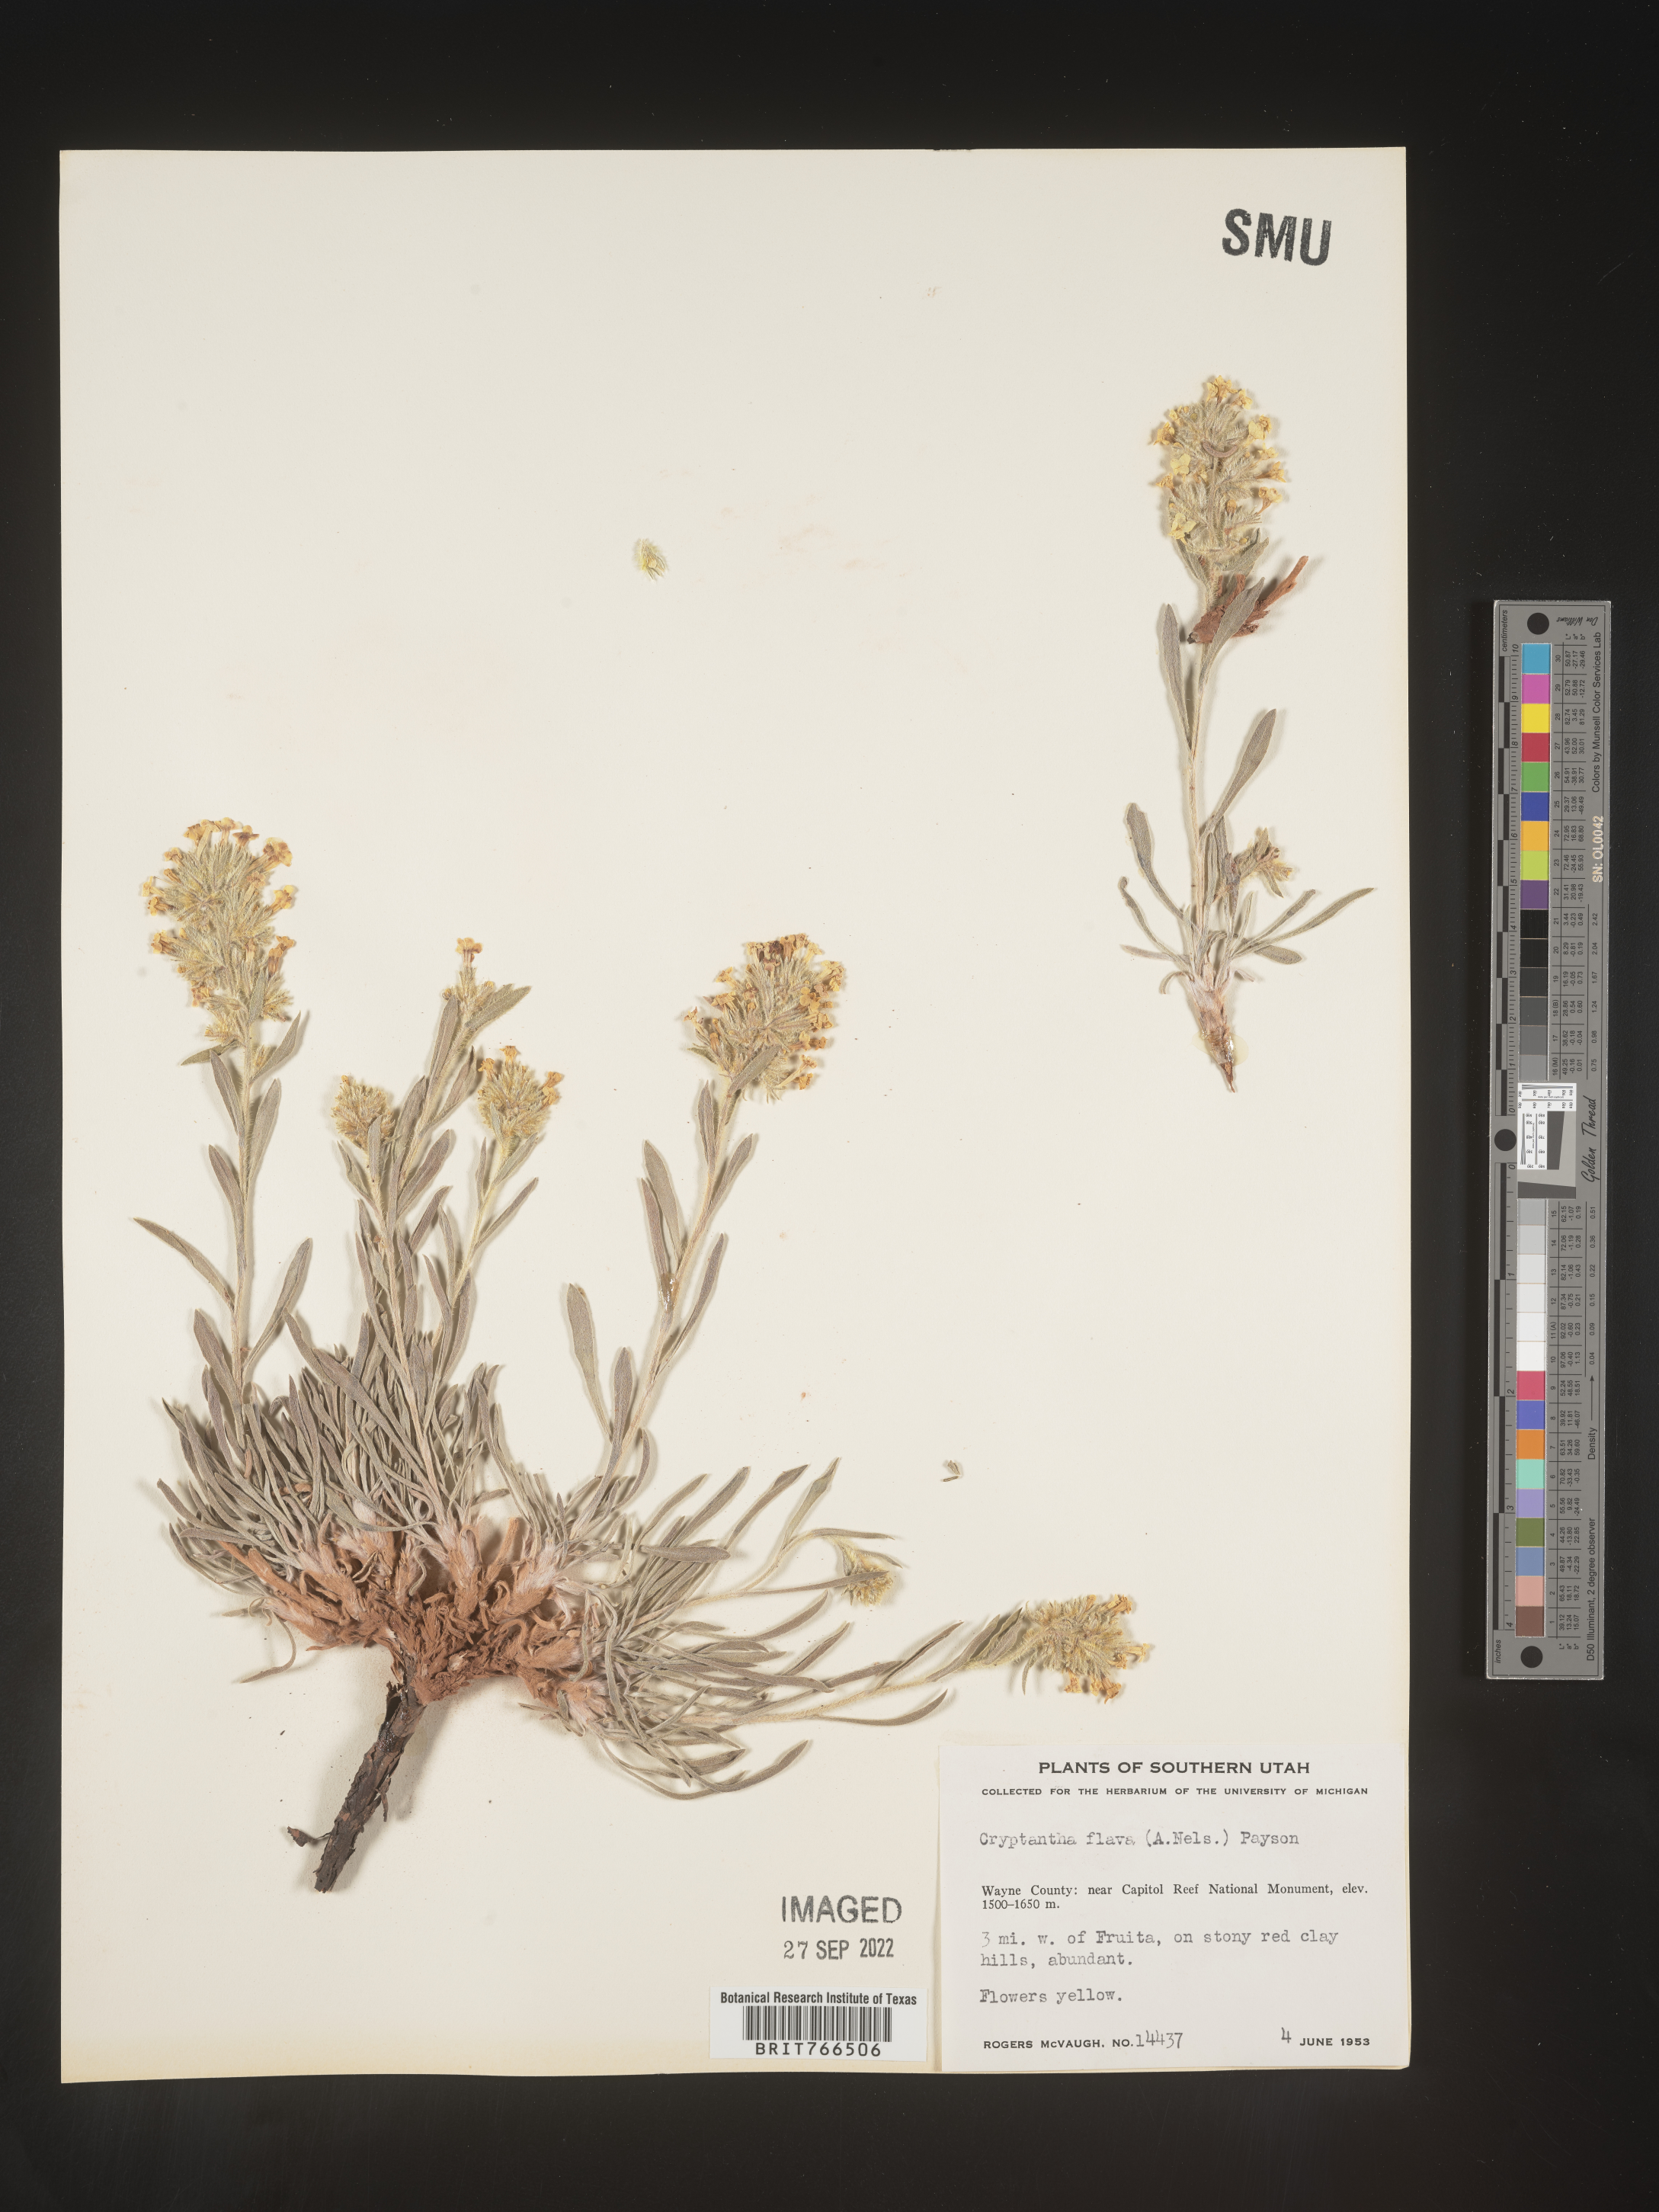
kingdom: Plantae
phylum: Tracheophyta
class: Magnoliopsida
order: Boraginales
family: Boraginaceae
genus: Oreocarya
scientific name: Oreocarya flava
